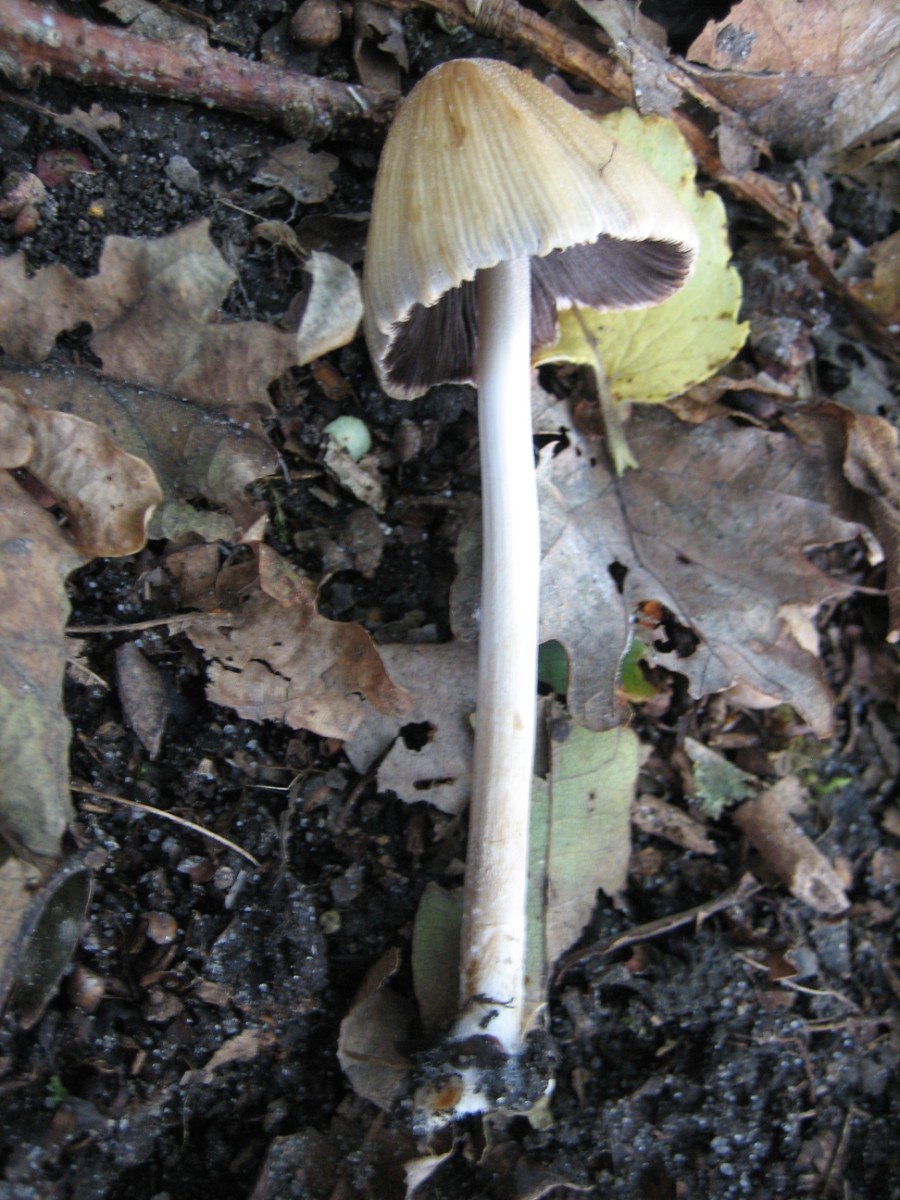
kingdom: Fungi
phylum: Basidiomycota
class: Agaricomycetes
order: Agaricales
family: Psathyrellaceae
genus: Coprinellus
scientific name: Coprinellus micaceus
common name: glimmer-blækhat
